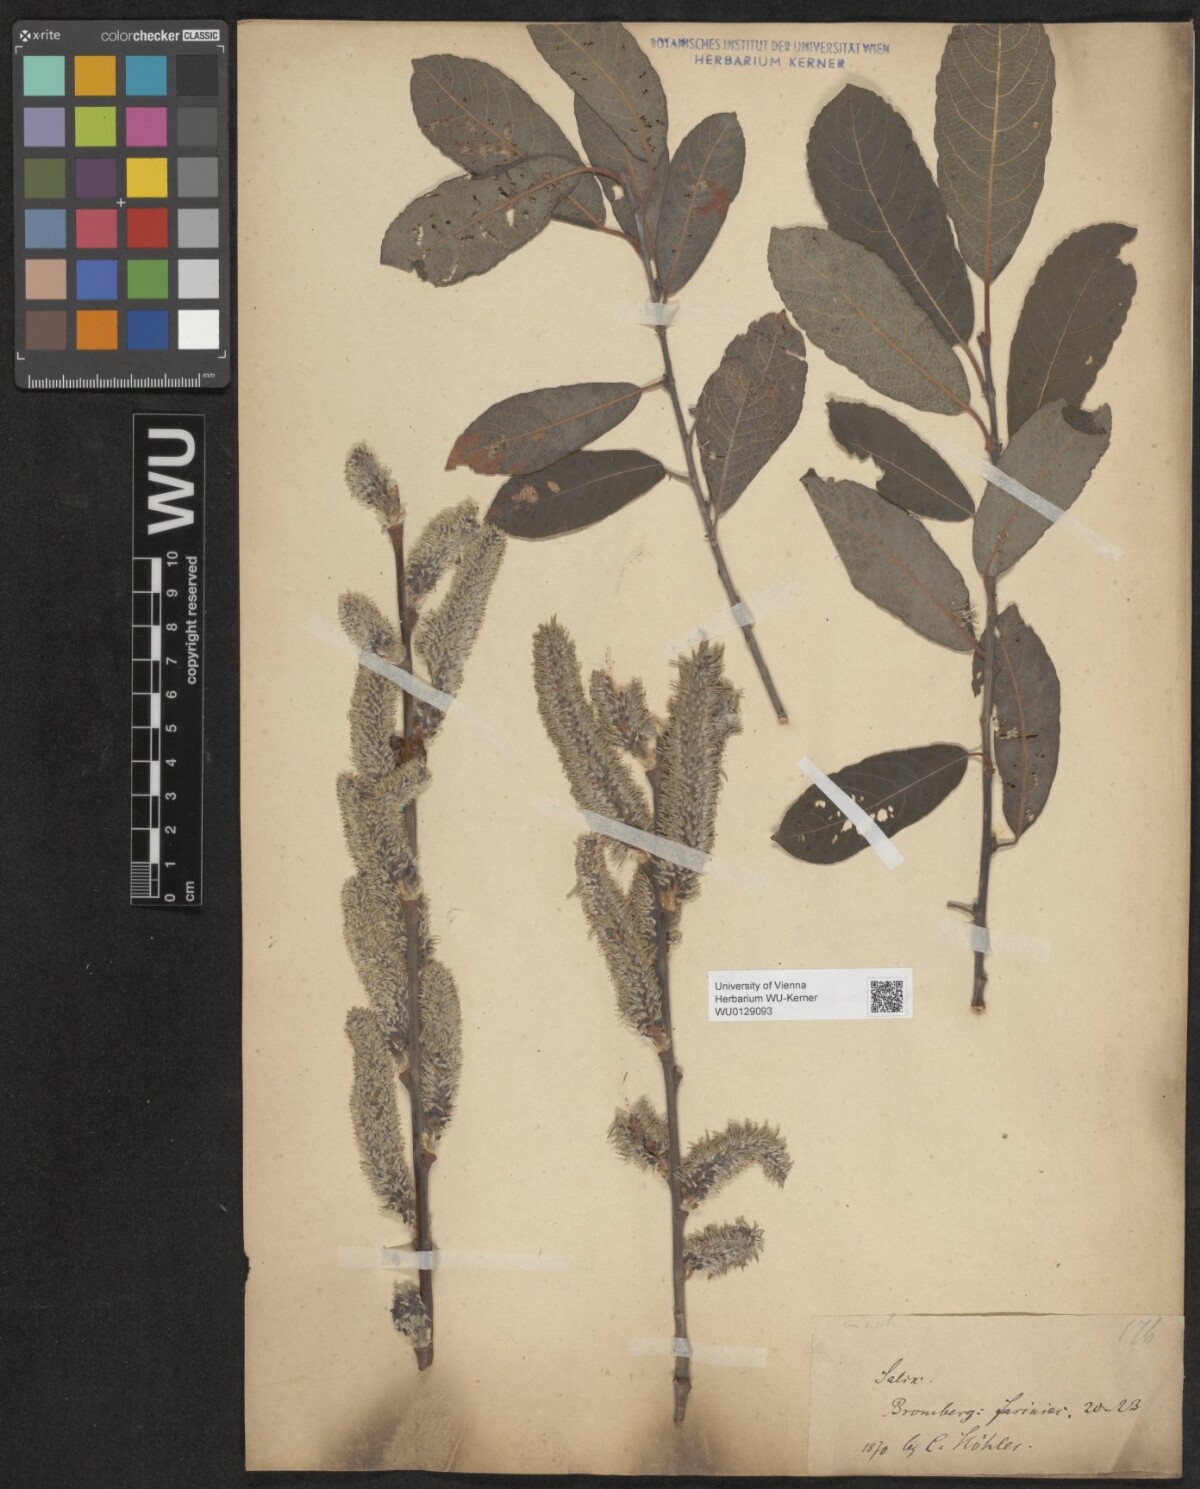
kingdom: Plantae
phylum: Tracheophyta
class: Magnoliopsida
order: Malpighiales
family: Salicaceae
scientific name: Salicaceae
